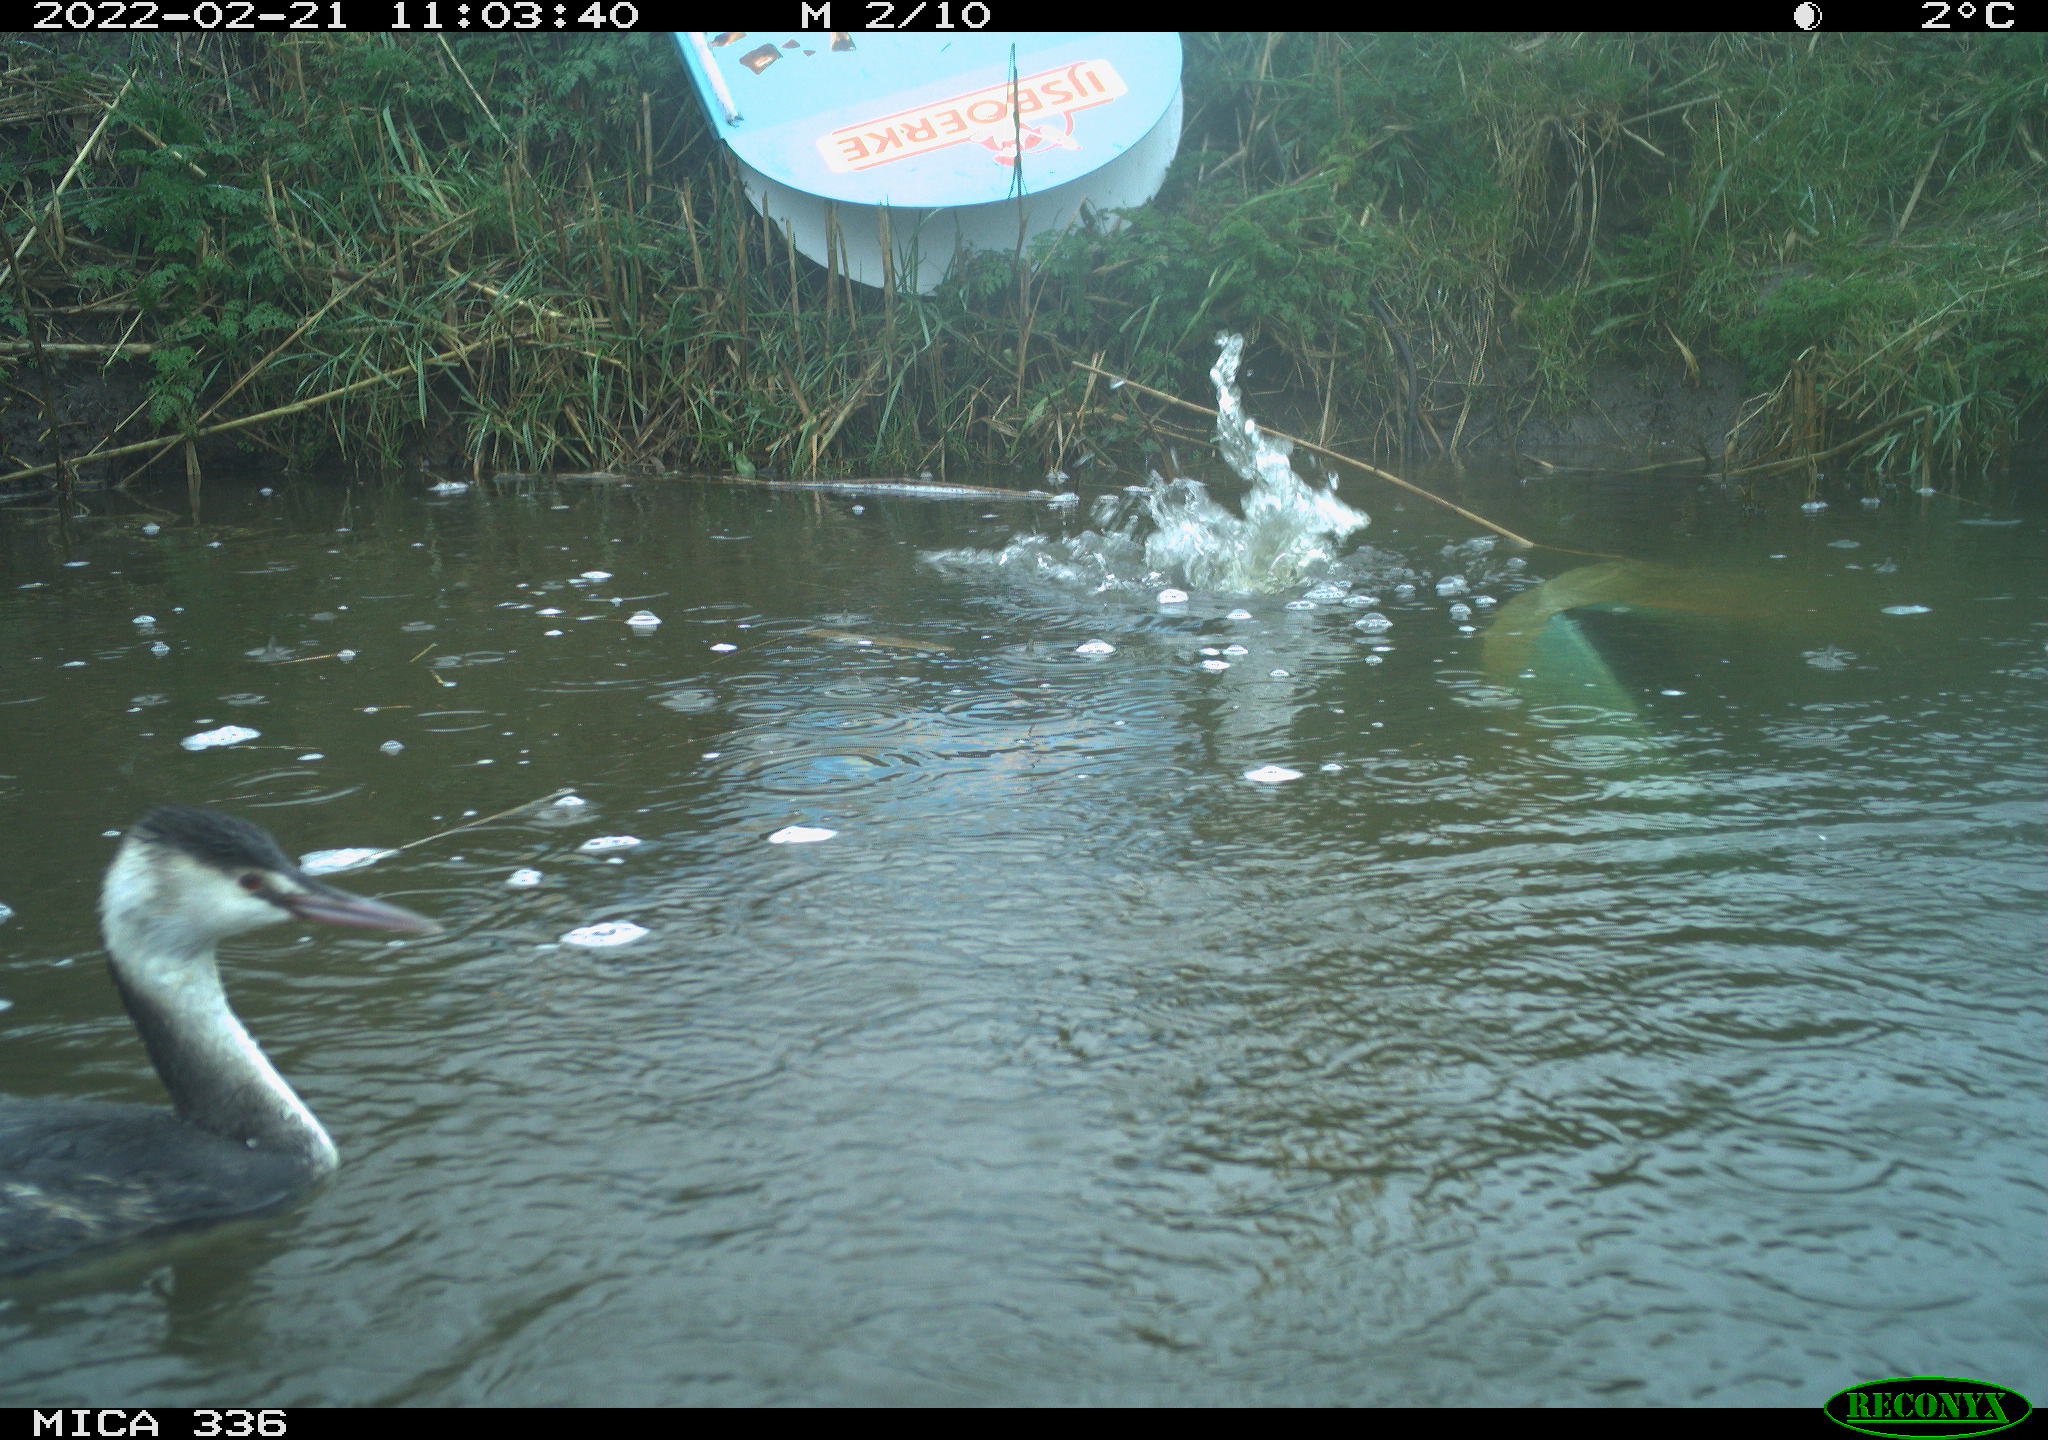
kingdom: Animalia
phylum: Chordata
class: Aves
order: Podicipediformes
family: Podicipedidae
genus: Podiceps
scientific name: Podiceps cristatus
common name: Great crested grebe
